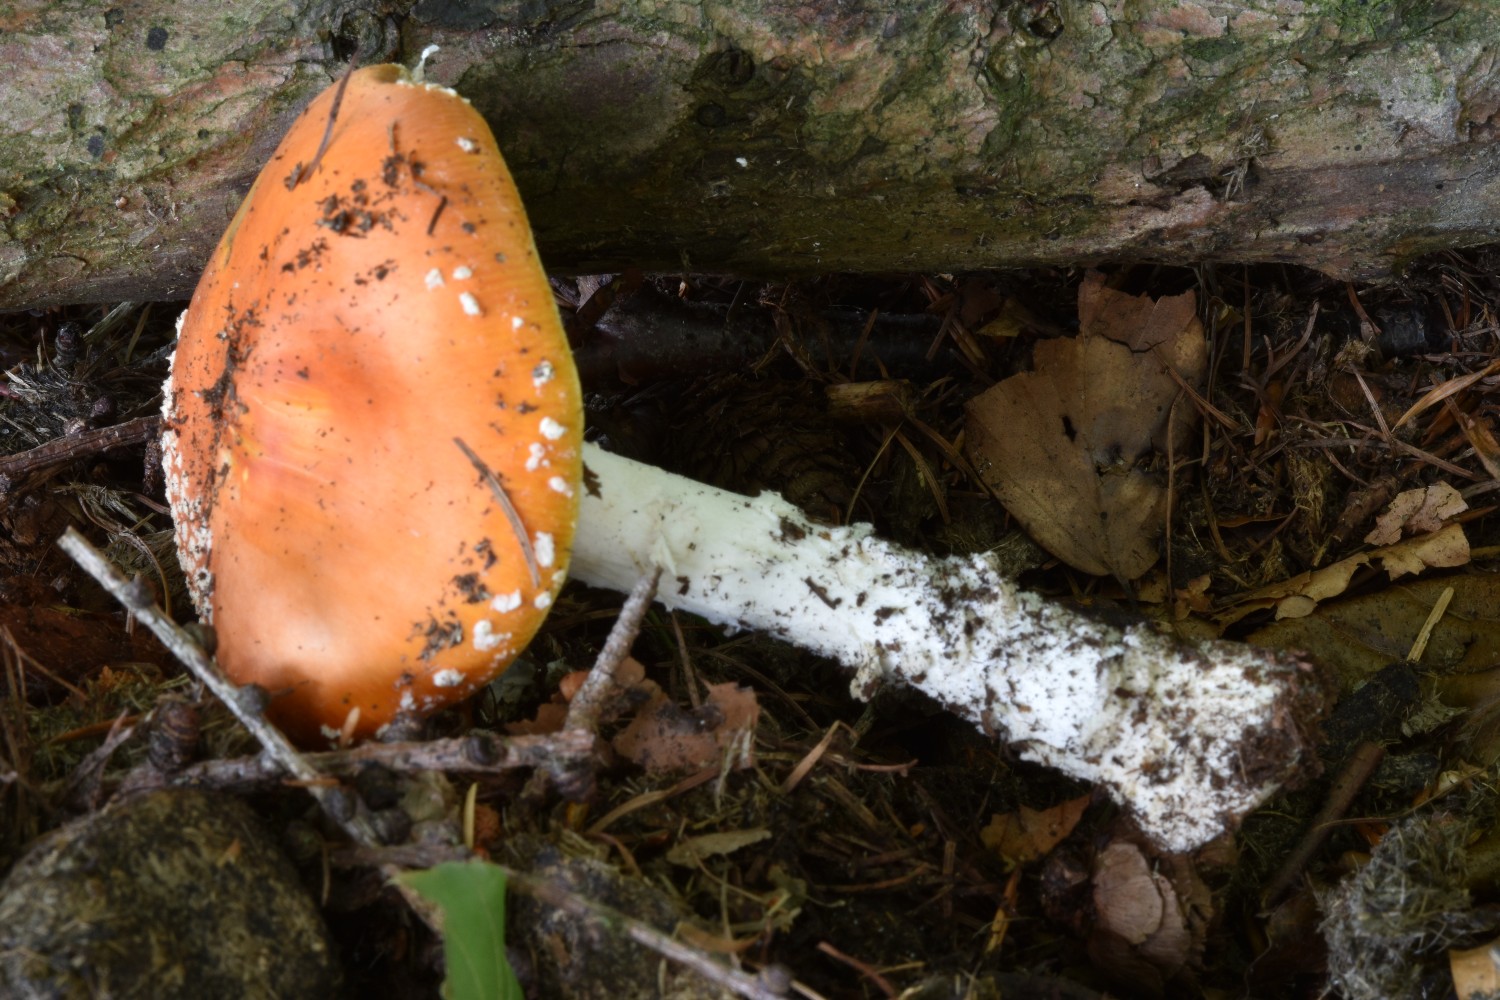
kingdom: Fungi
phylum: Basidiomycota
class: Agaricomycetes
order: Agaricales
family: Amanitaceae
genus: Amanita
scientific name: Amanita muscaria
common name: rød fluesvamp
